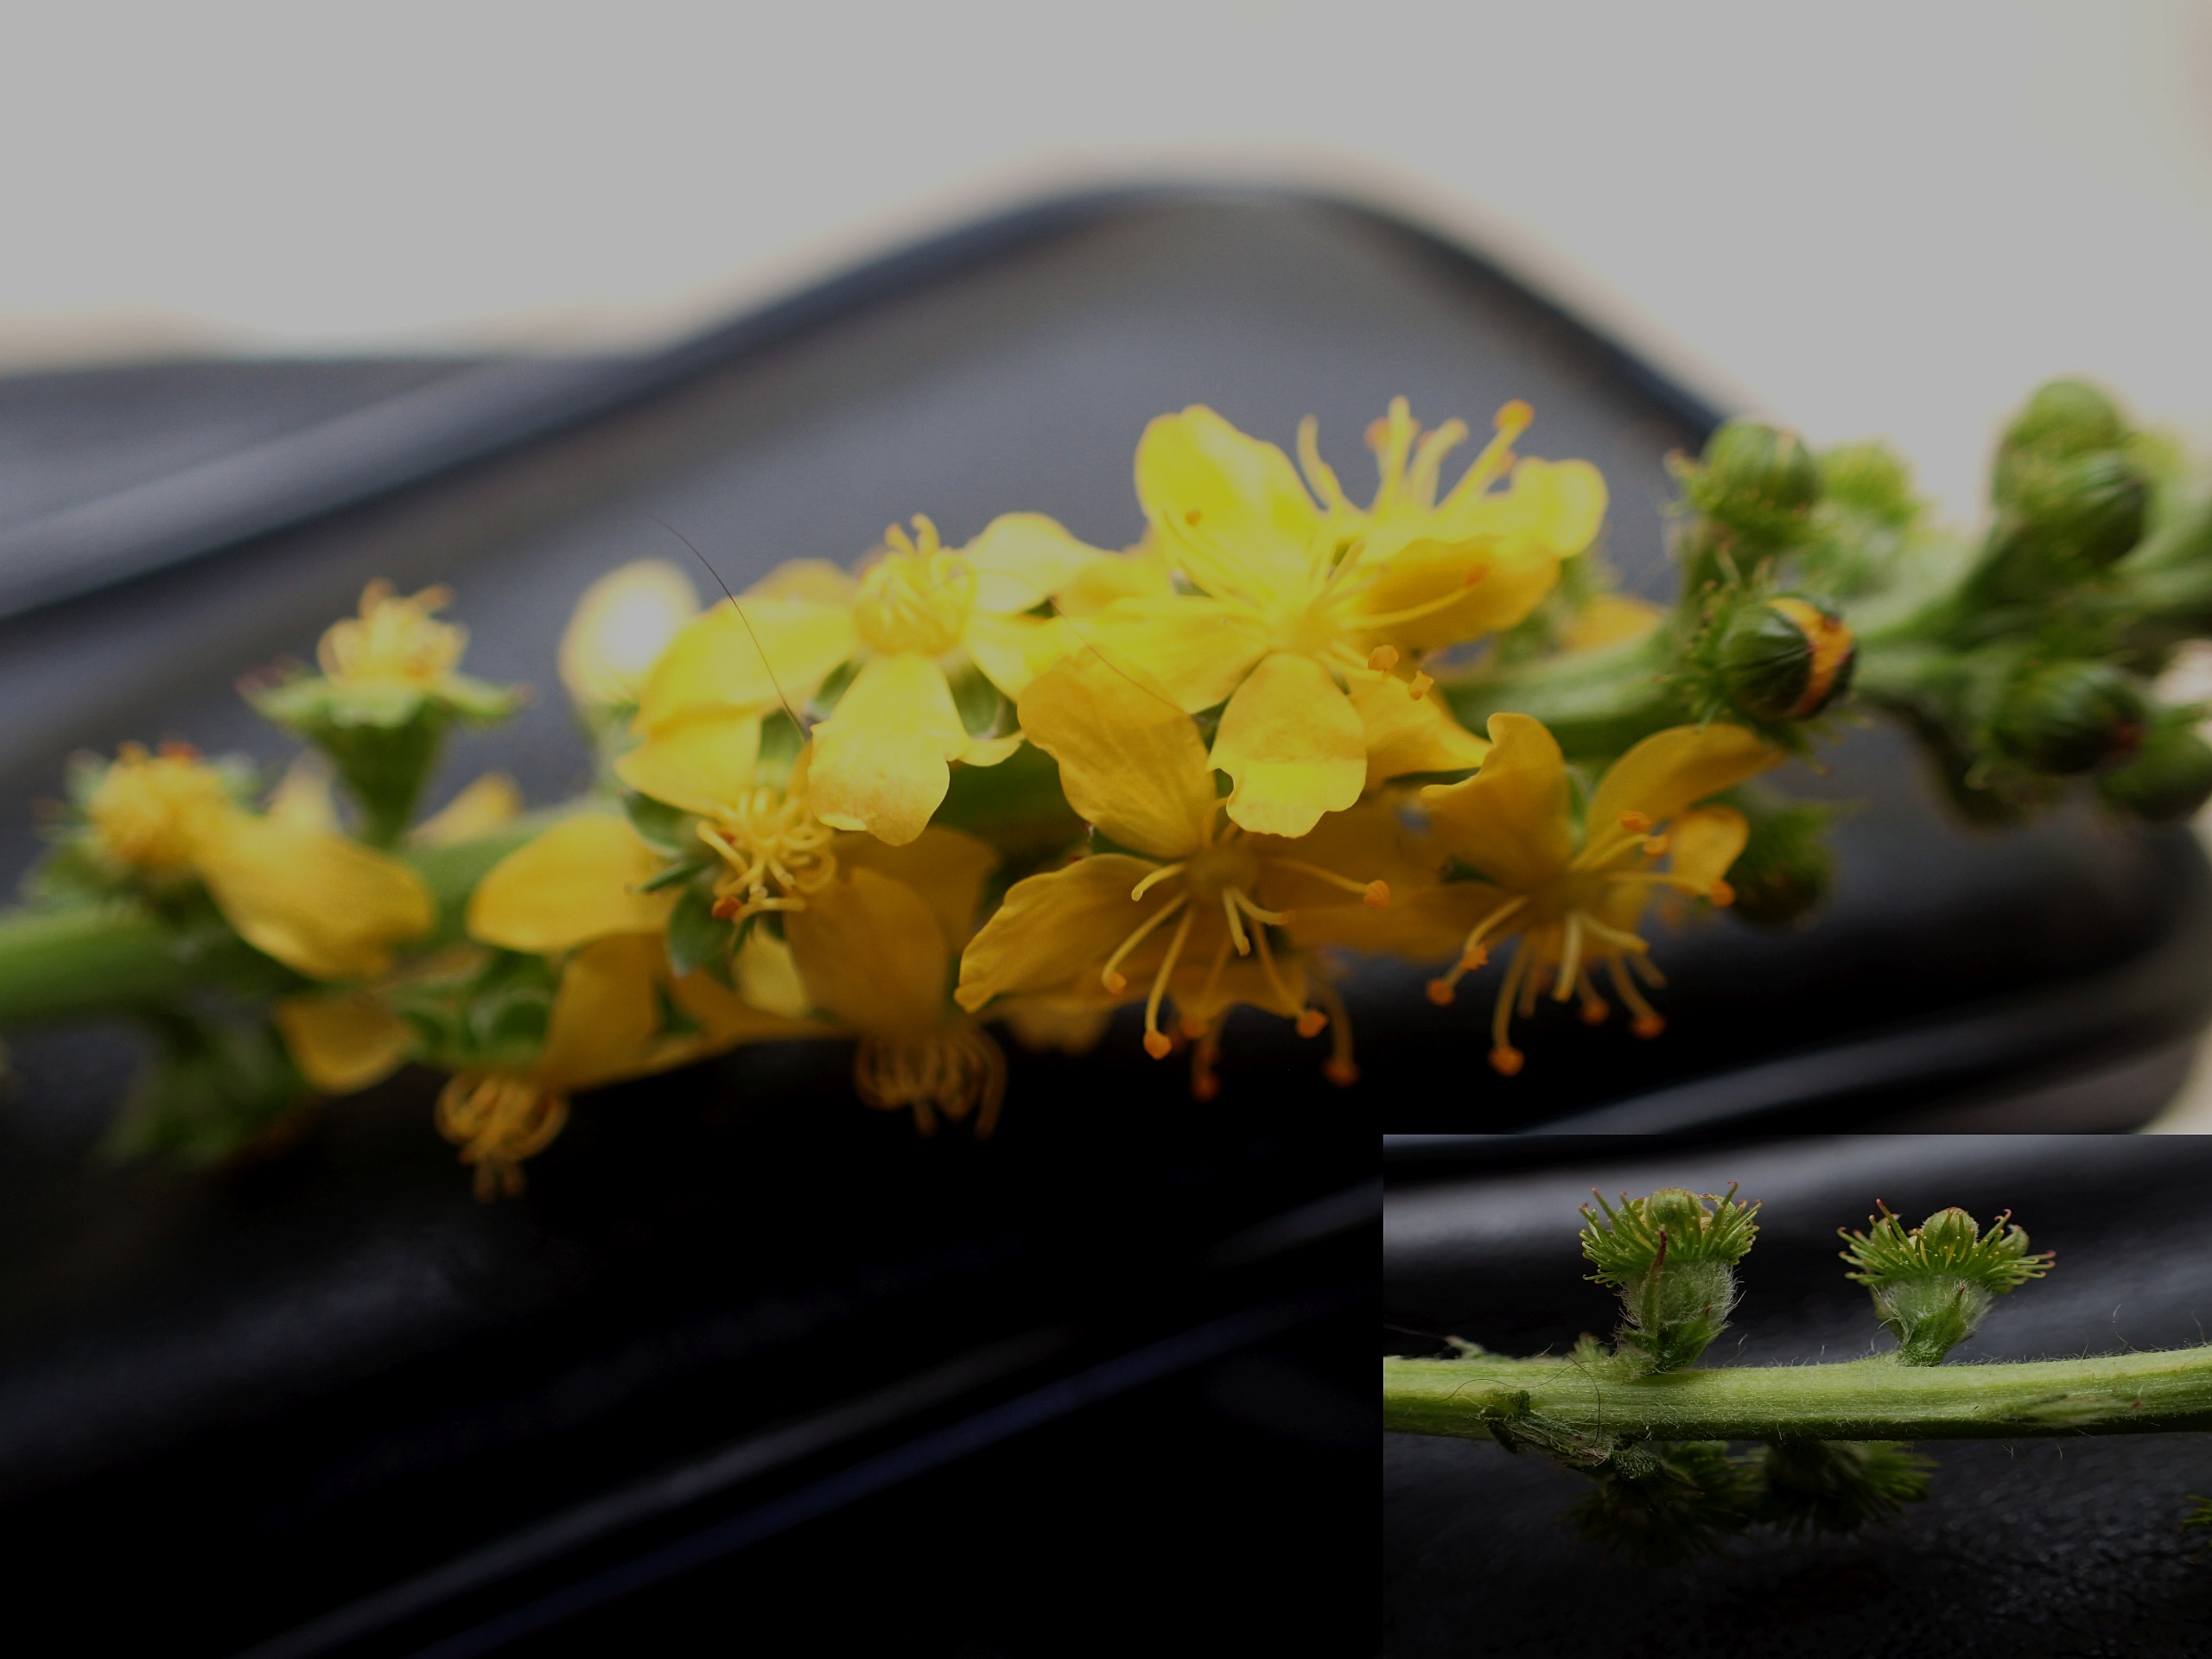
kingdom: Plantae
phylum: Tracheophyta
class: Magnoliopsida
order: Rosales
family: Rosaceae
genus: Agrimonia
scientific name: Agrimonia eupatoria
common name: Almindelig agermåne
